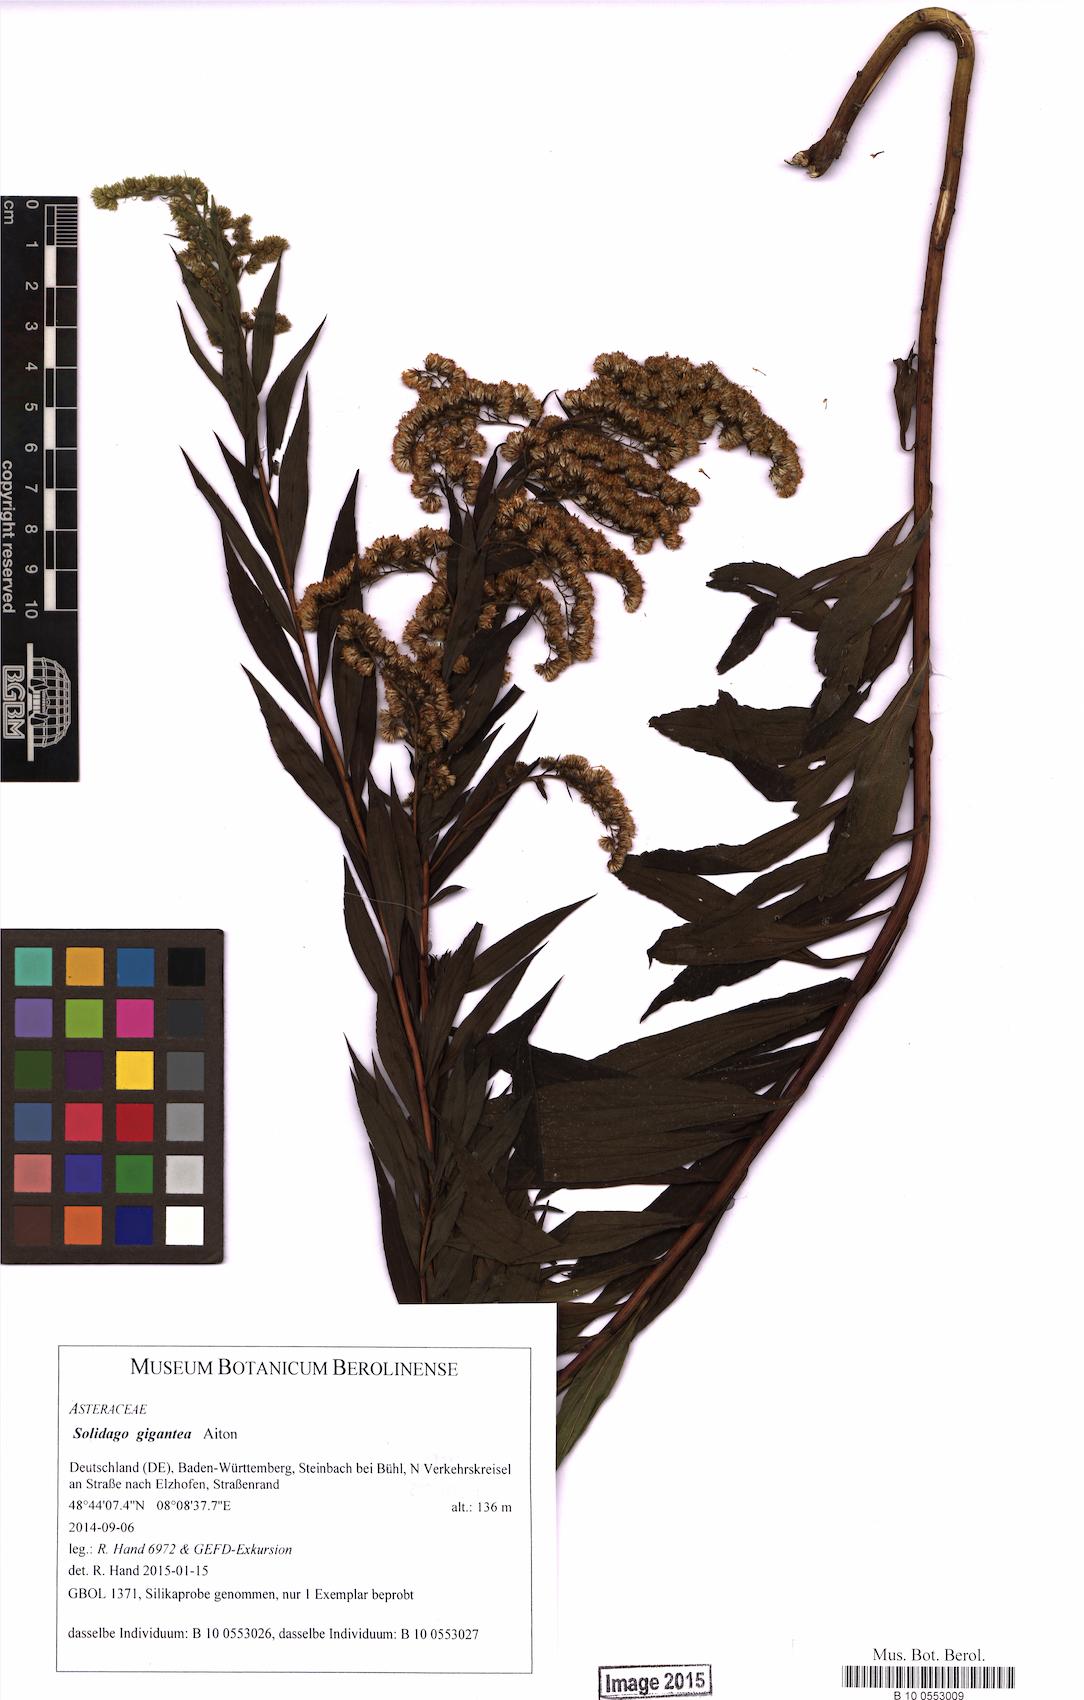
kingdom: Plantae
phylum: Tracheophyta
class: Magnoliopsida
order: Asterales
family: Asteraceae
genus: Solidago
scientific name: Solidago gigantea
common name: Giant goldenrod
